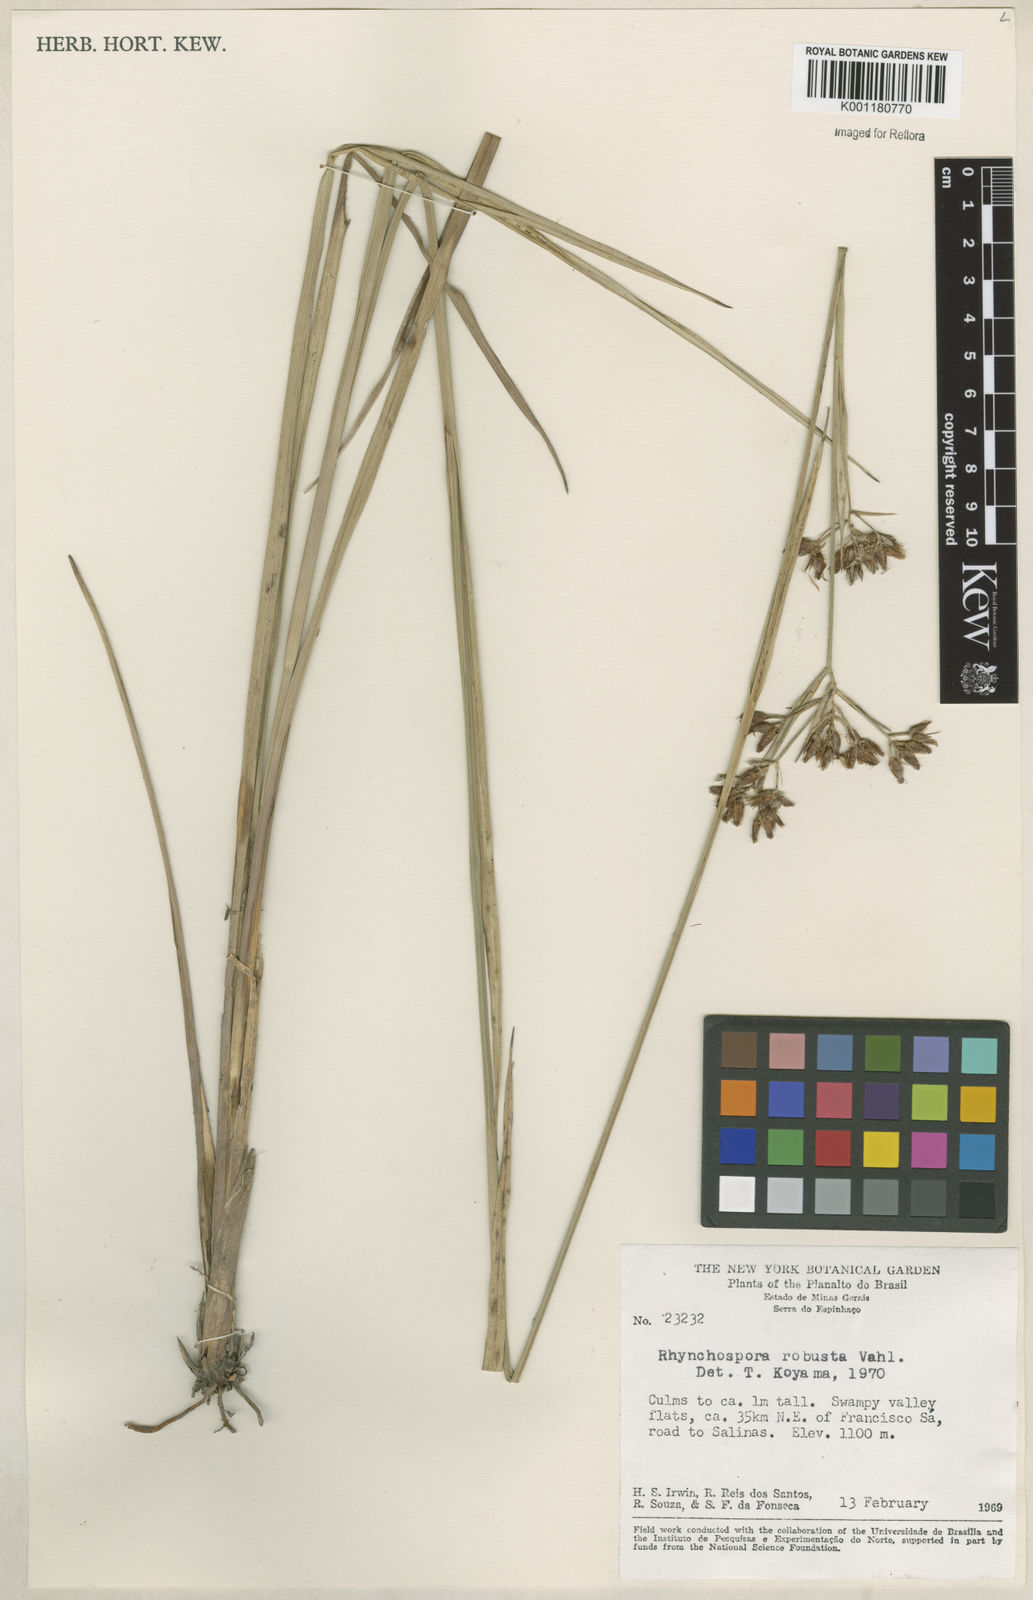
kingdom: Plantae
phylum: Tracheophyta
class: Liliopsida
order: Poales
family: Cyperaceae
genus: Rhynchospora
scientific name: Rhynchospora robusta
